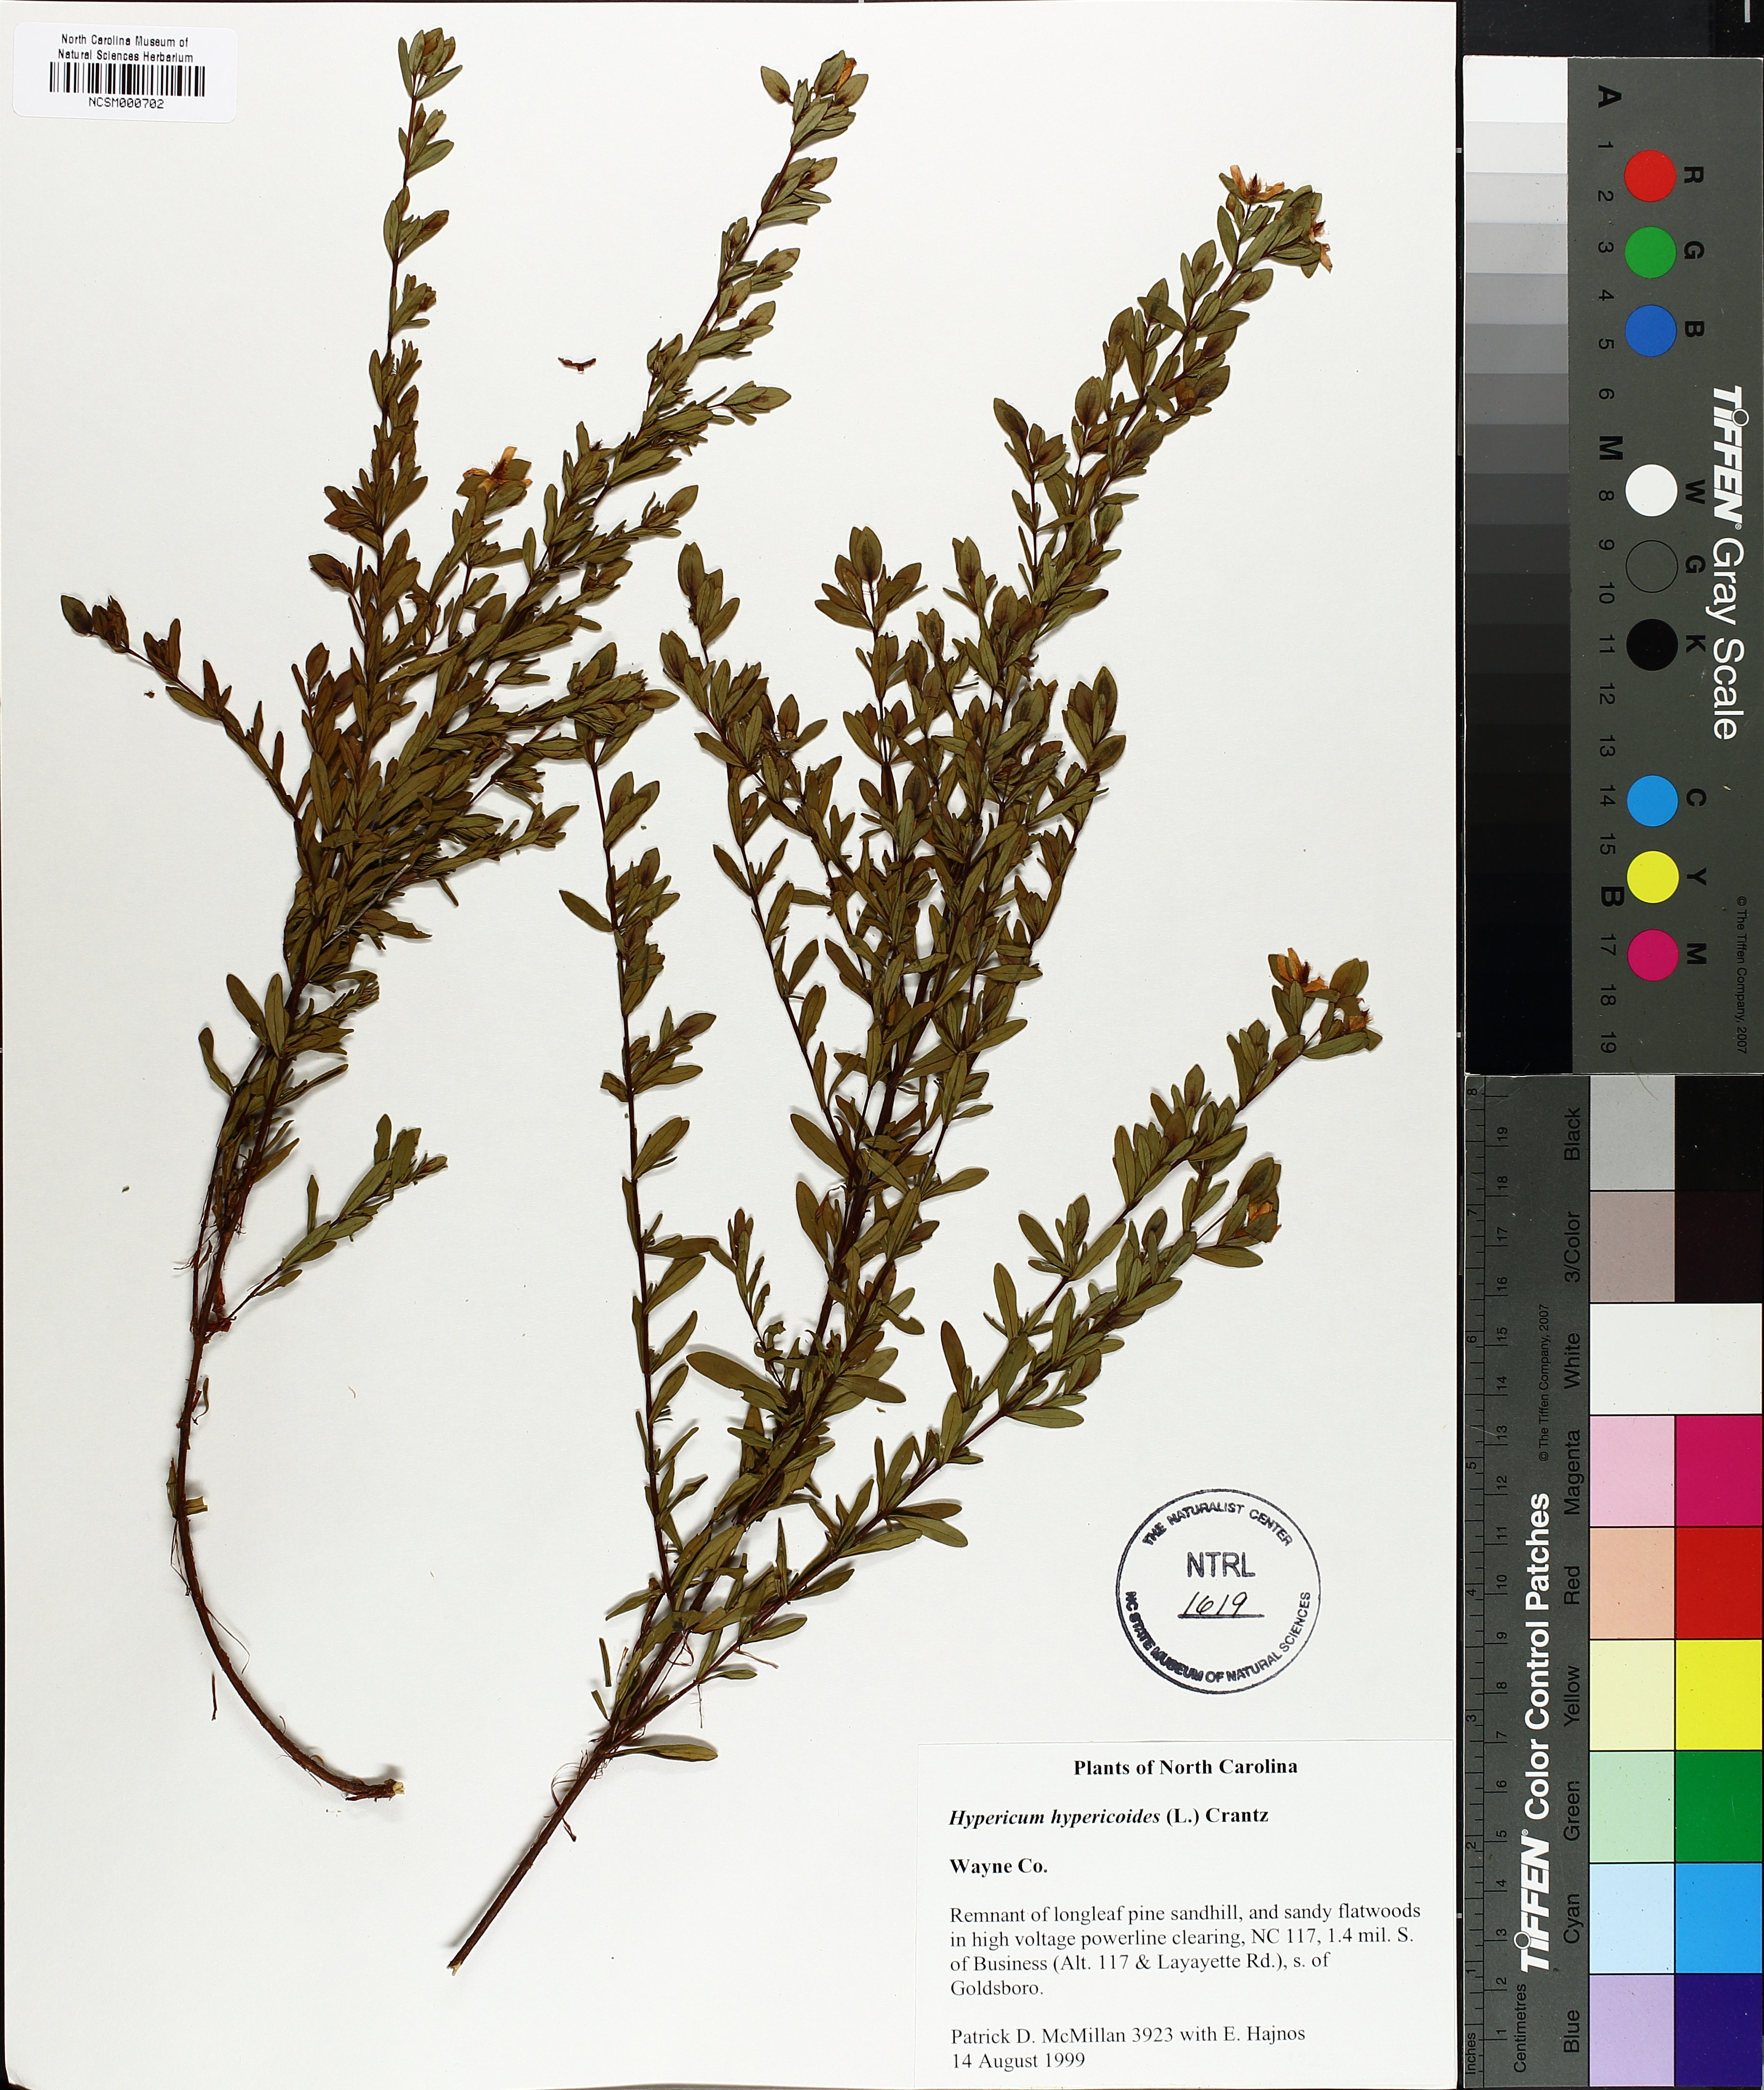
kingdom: Plantae
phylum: Tracheophyta
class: Magnoliopsida
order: Malpighiales
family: Hypericaceae
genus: Hypericum
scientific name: Hypericum hypericoides
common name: St. andrew's cross
